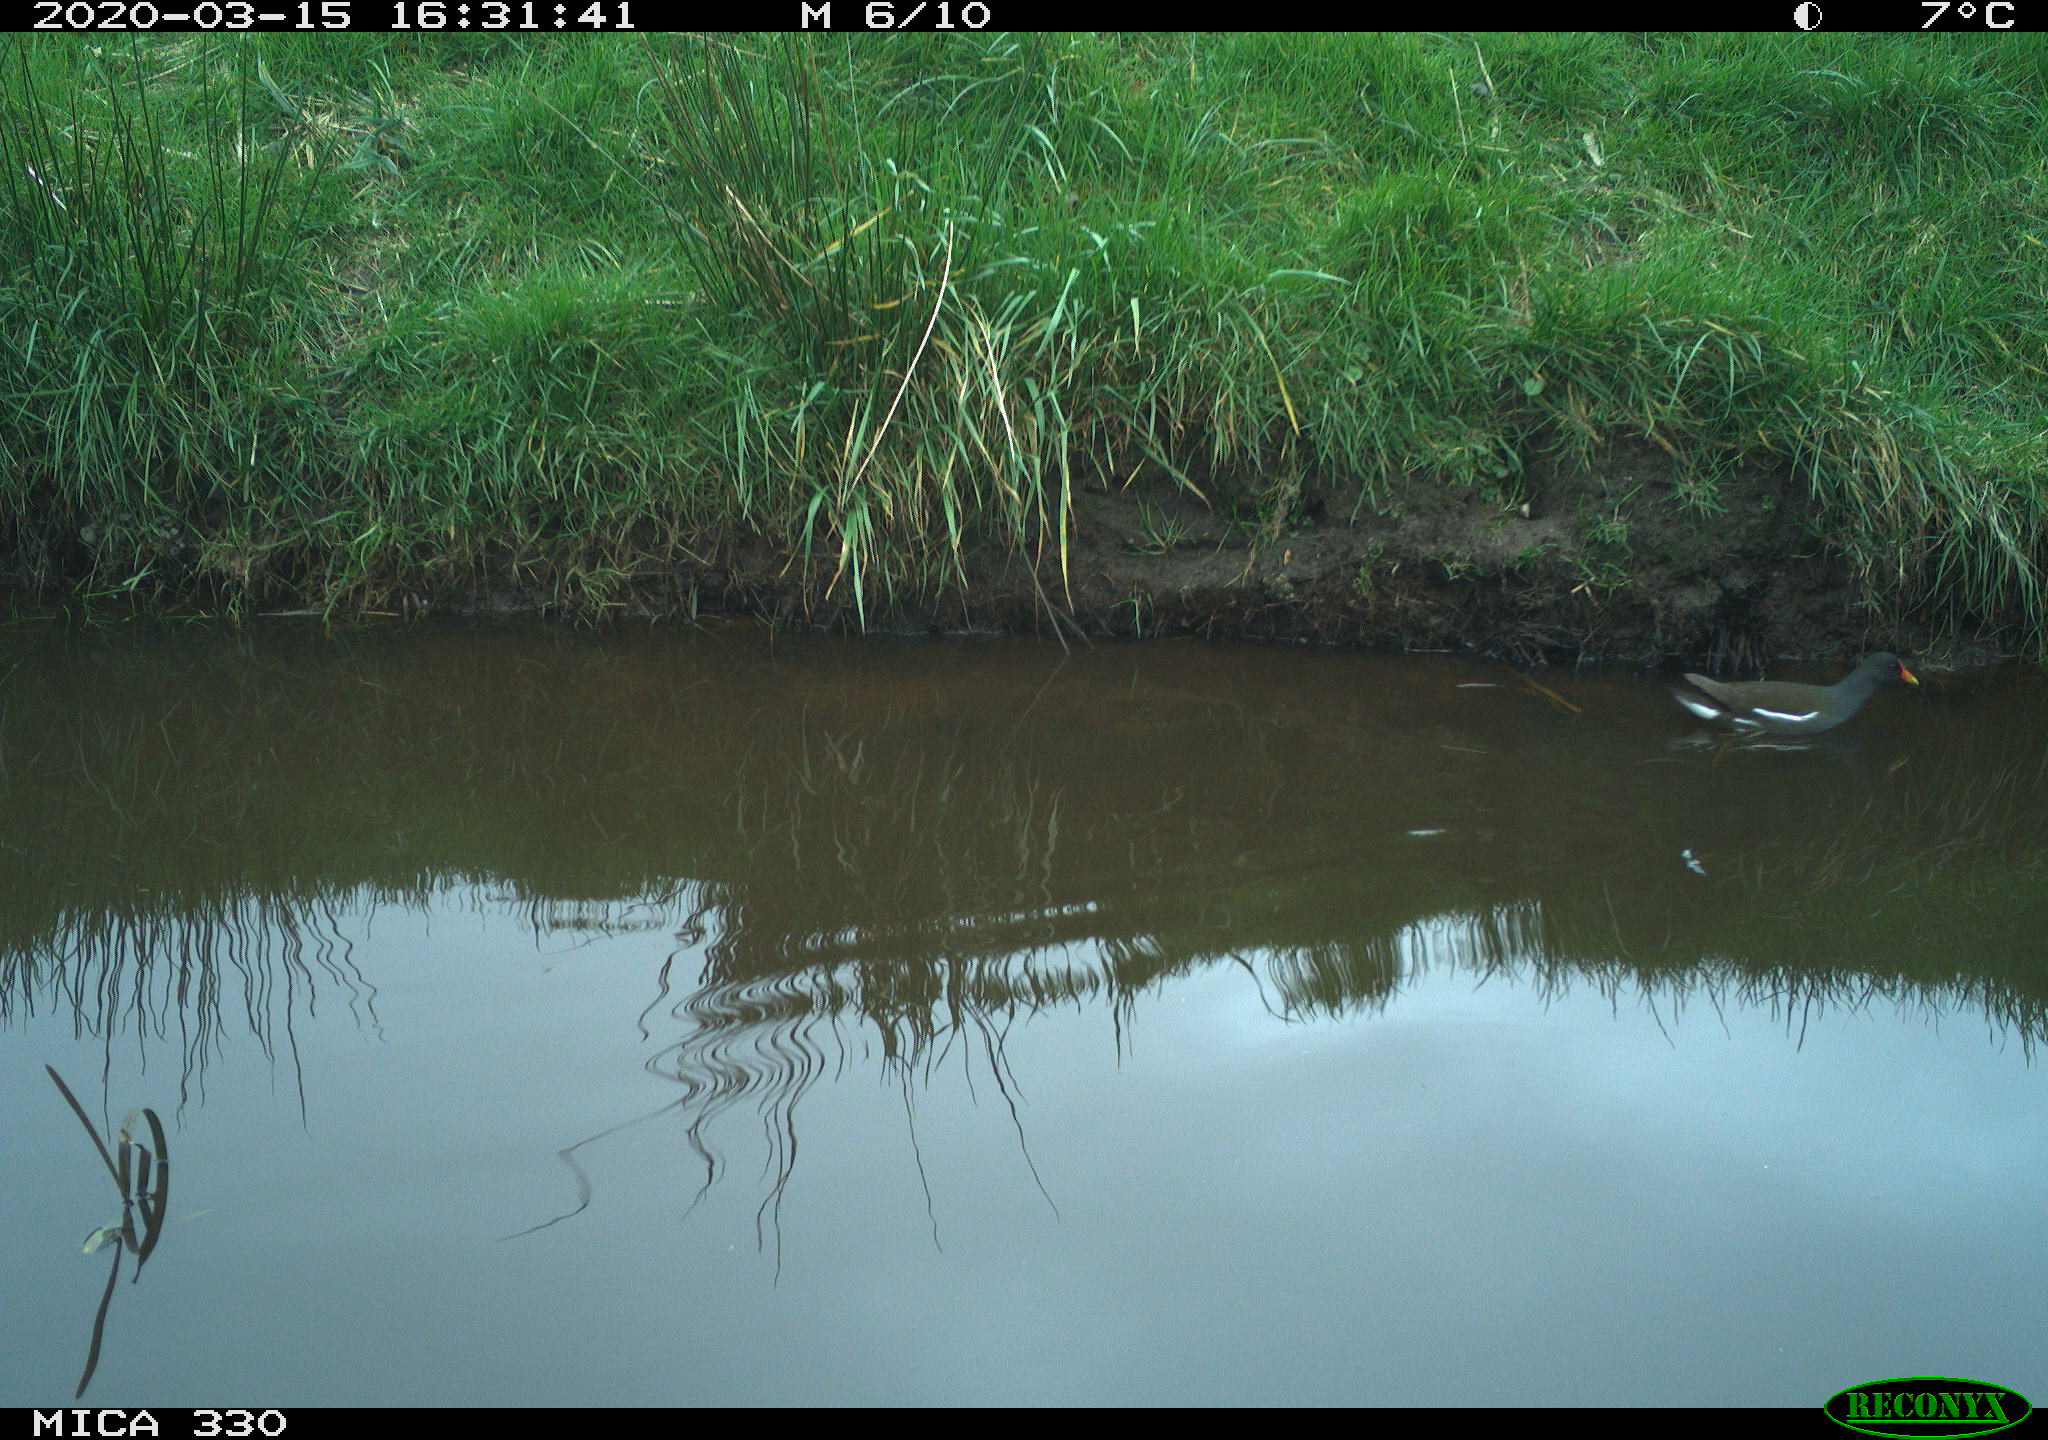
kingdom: Animalia
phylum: Chordata
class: Aves
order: Gruiformes
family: Rallidae
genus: Gallinula
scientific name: Gallinula chloropus
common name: Common moorhen
